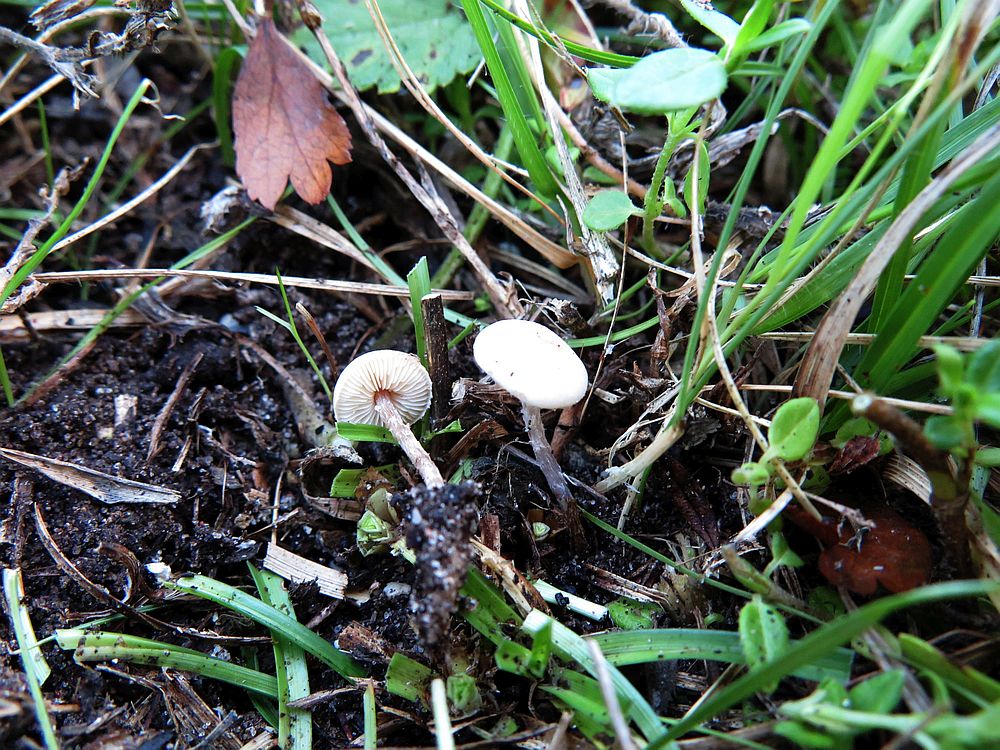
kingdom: Fungi
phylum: Basidiomycota
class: Agaricomycetes
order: Agaricales
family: Agaricaceae
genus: Lepiota
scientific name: Lepiota coloratipes
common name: nøgen parasolhat
